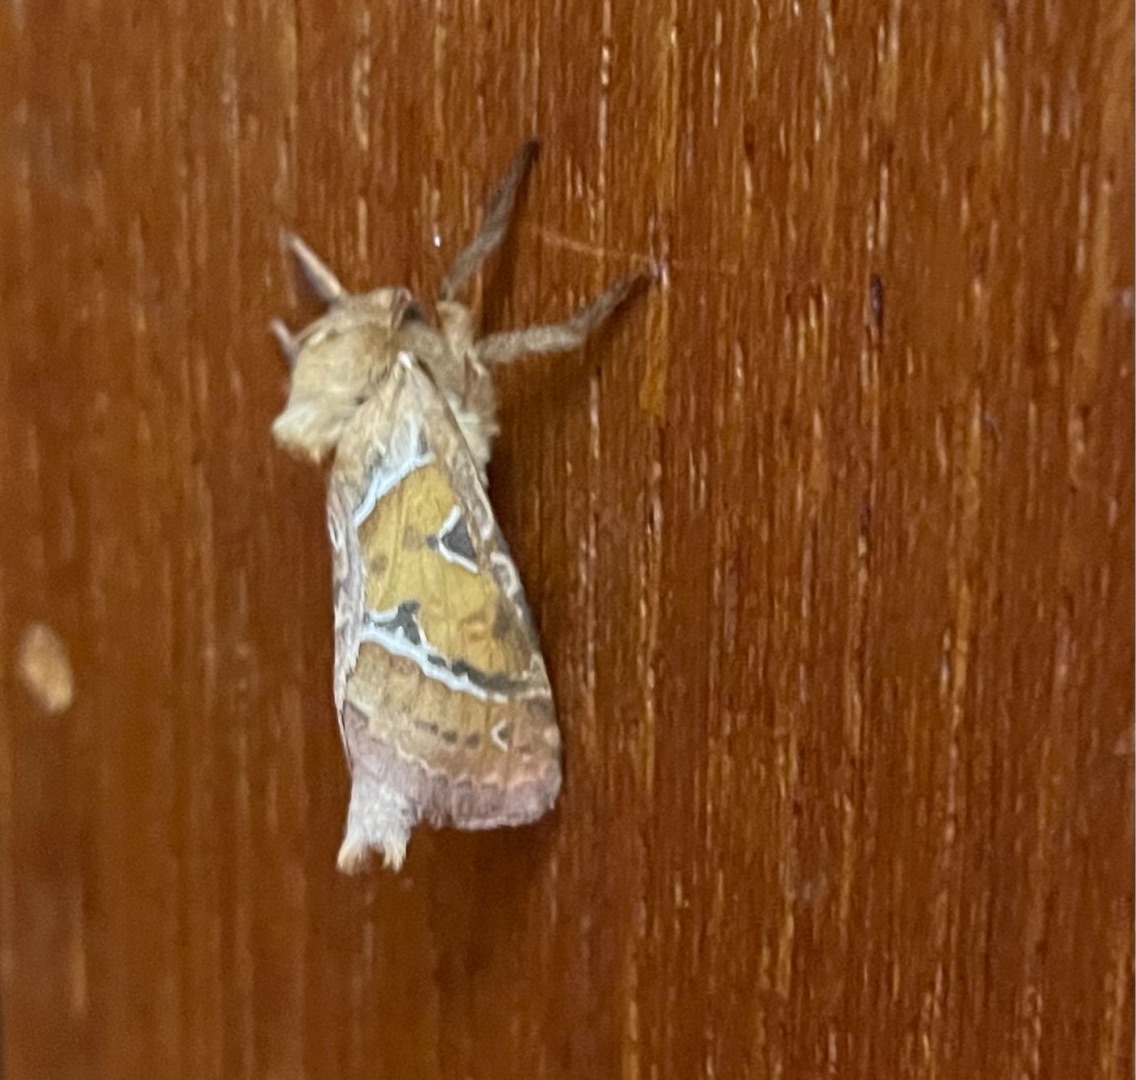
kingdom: Animalia
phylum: Arthropoda
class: Insecta
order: Lepidoptera
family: Hepialidae
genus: Triodia
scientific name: Triodia sylvina
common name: Skræpperodæder
